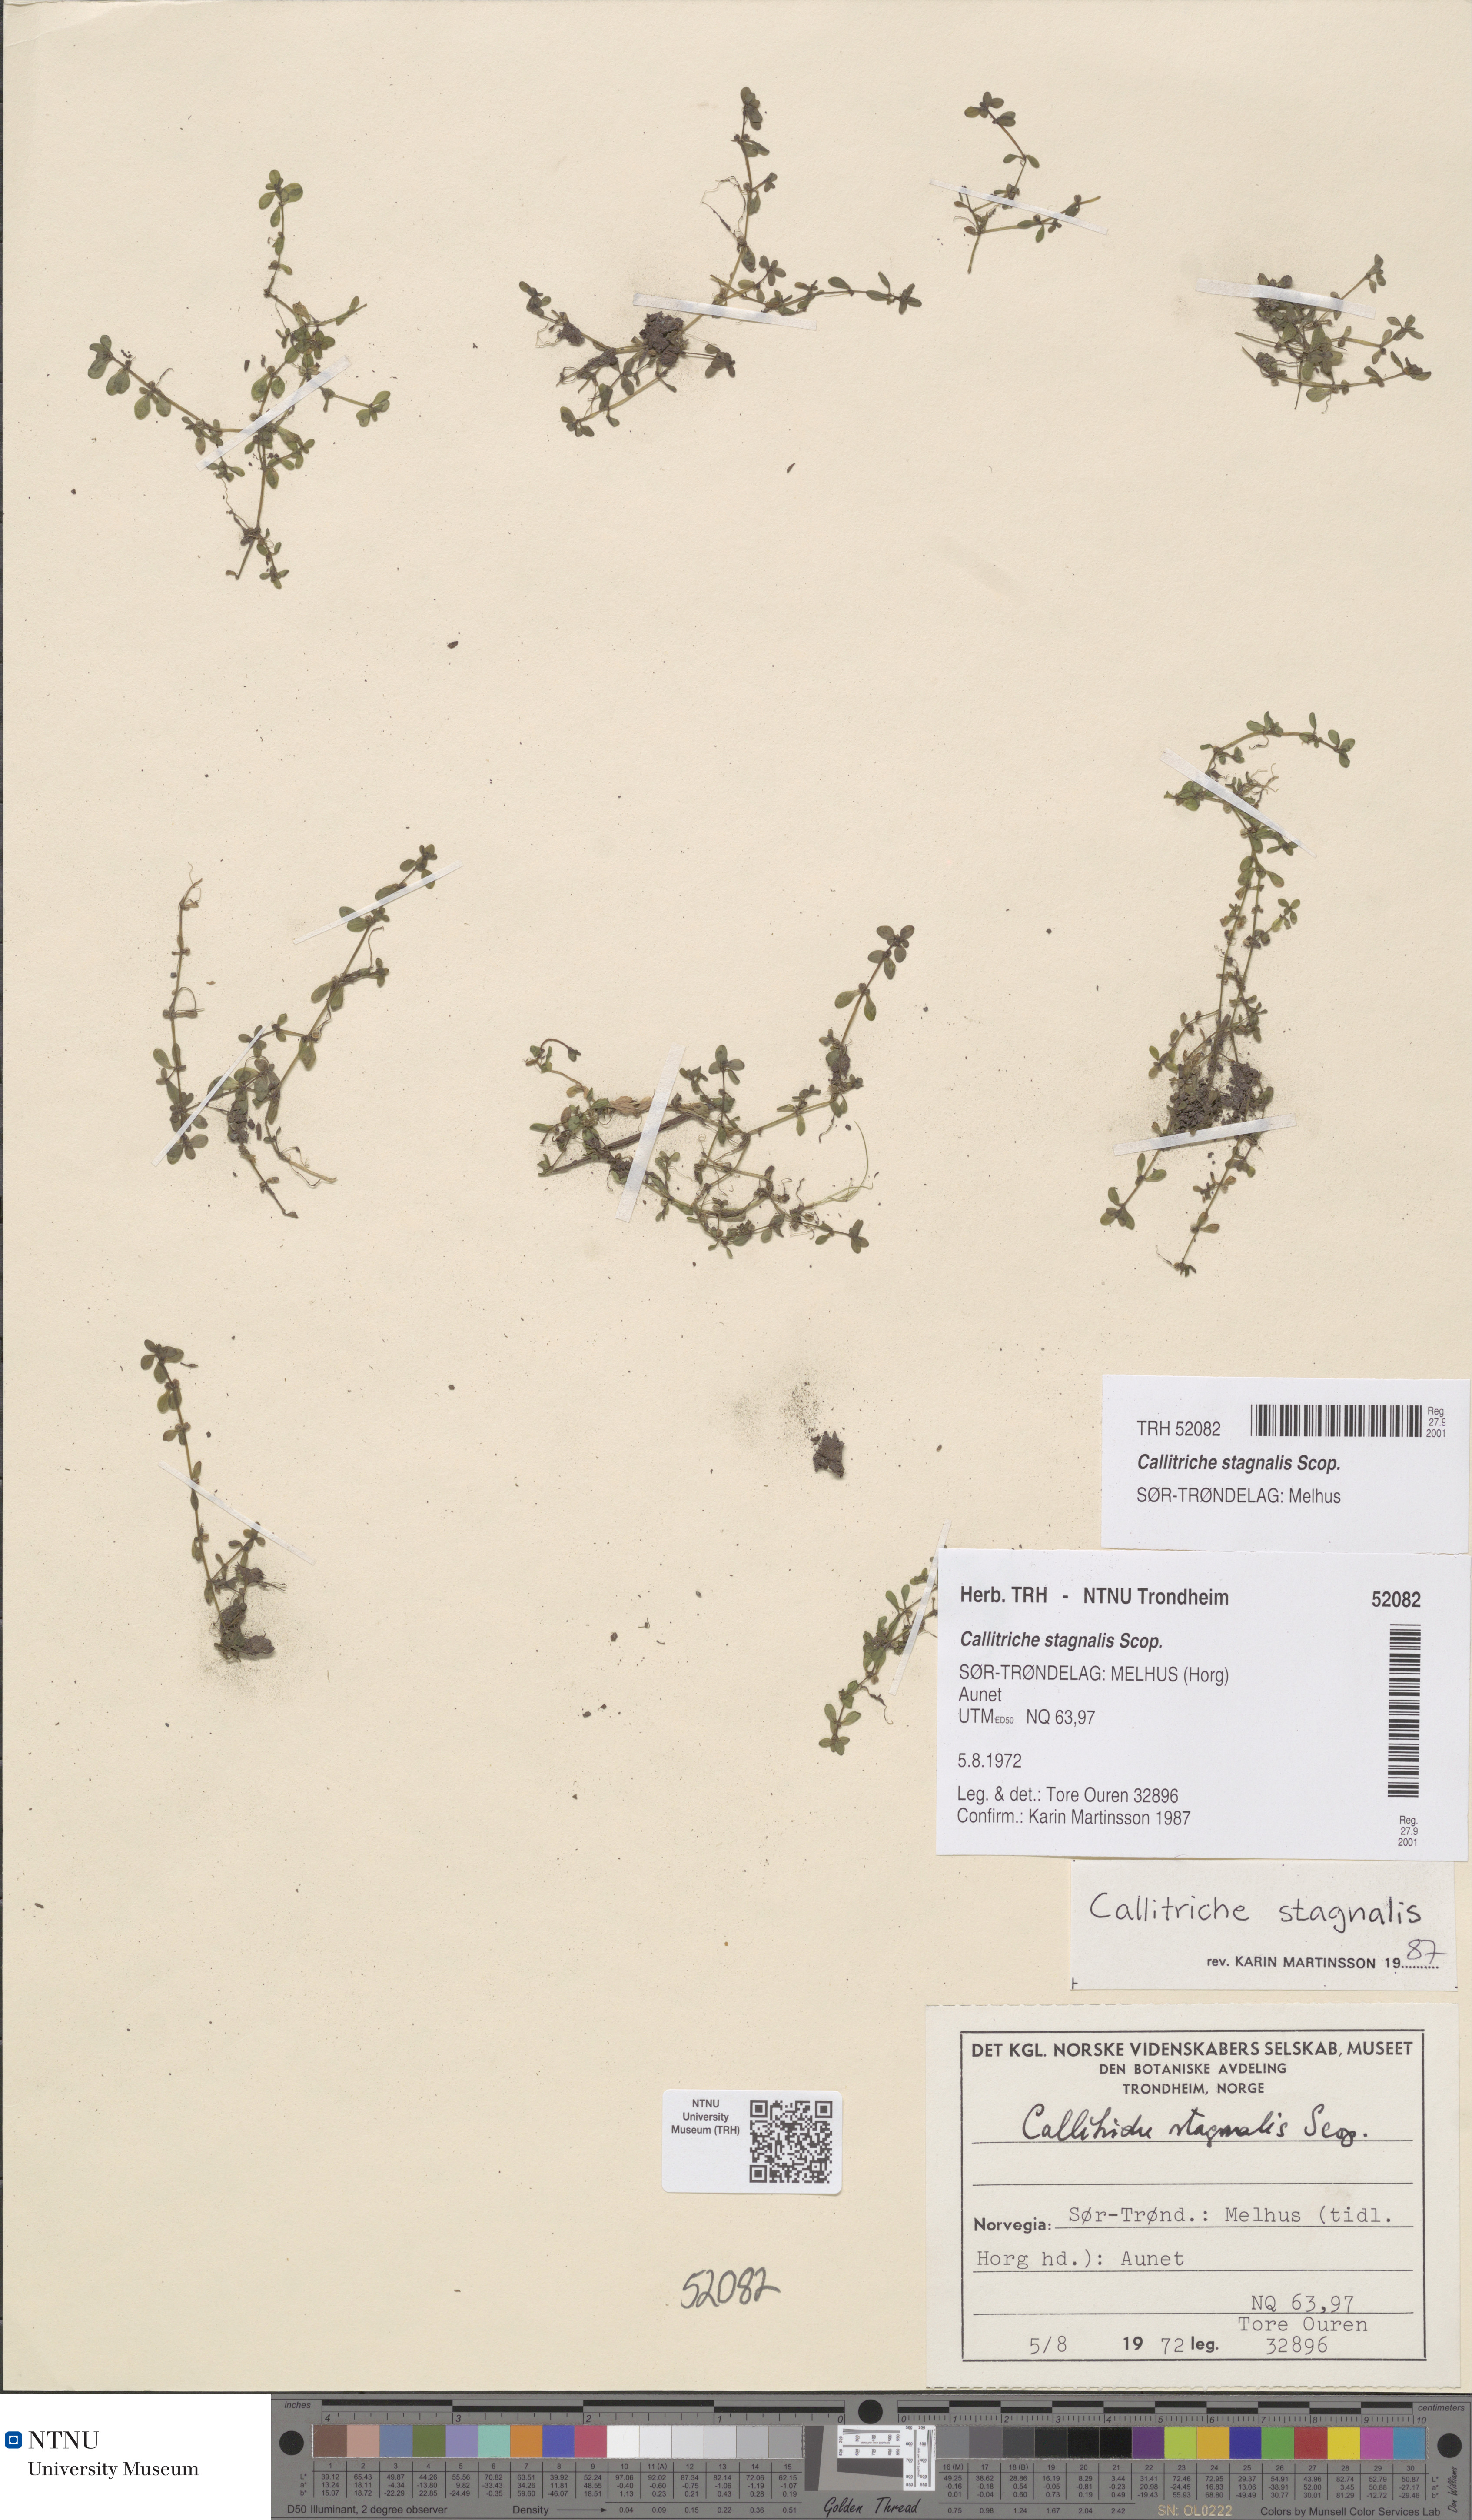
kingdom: Plantae
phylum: Tracheophyta
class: Magnoliopsida
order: Lamiales
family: Plantaginaceae
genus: Callitriche
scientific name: Callitriche stagnalis
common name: Common water-starwort
